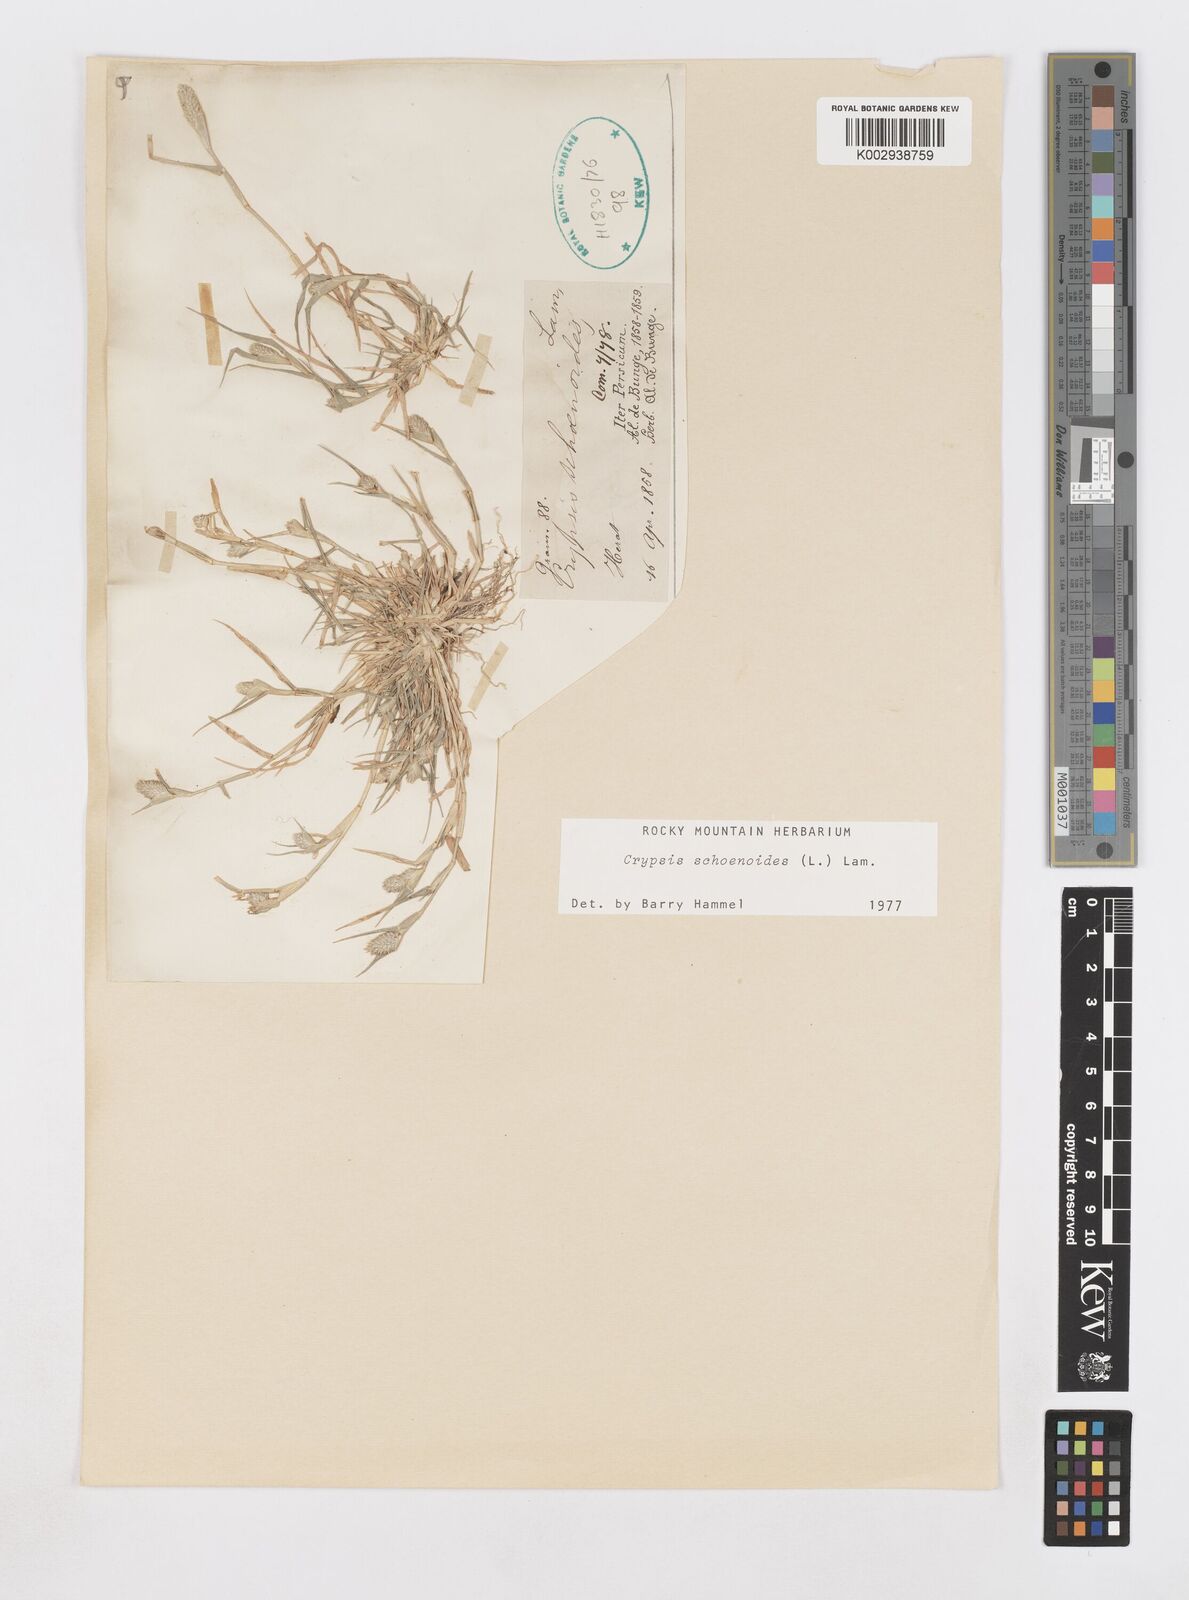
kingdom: Plantae
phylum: Tracheophyta
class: Liliopsida
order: Poales
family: Poaceae
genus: Sporobolus
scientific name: Sporobolus schoenoides
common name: Rush-like timothy
